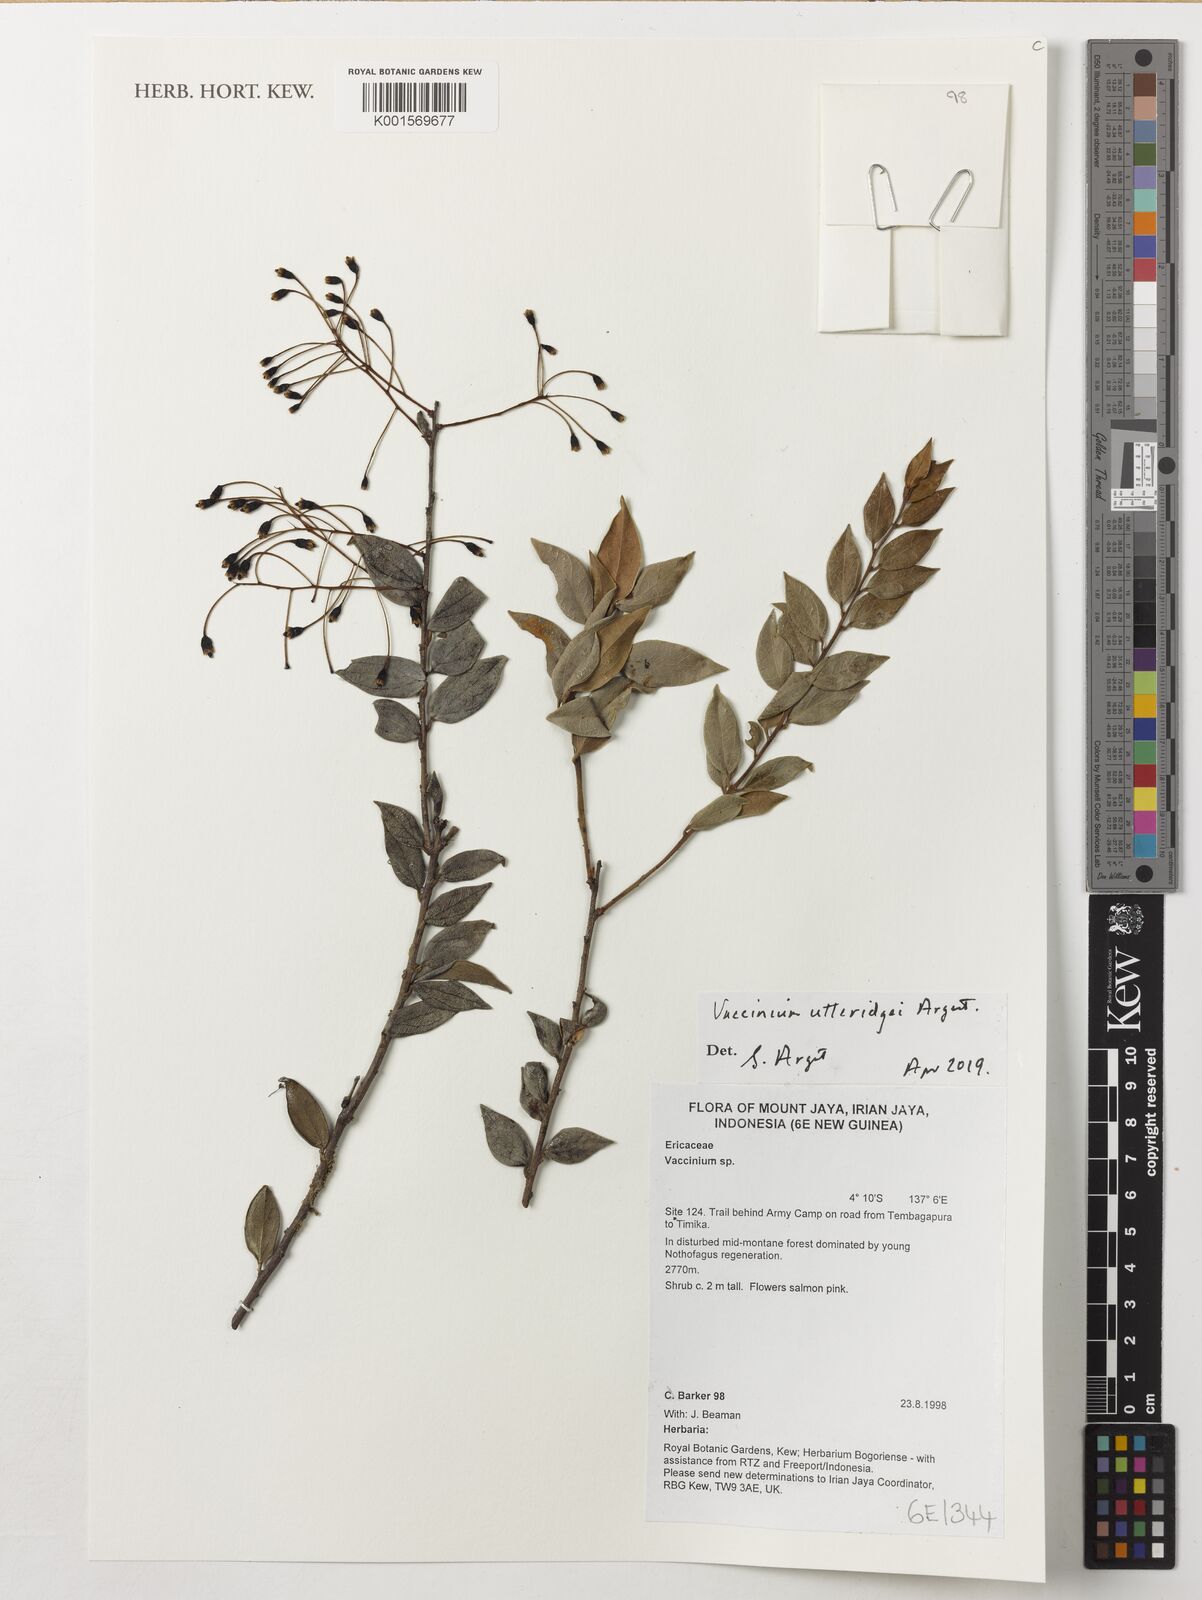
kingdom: Plantae
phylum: Tracheophyta
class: Magnoliopsida
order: Ericales
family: Ericaceae
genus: Vaccinium
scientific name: Vaccinium utteridgei
